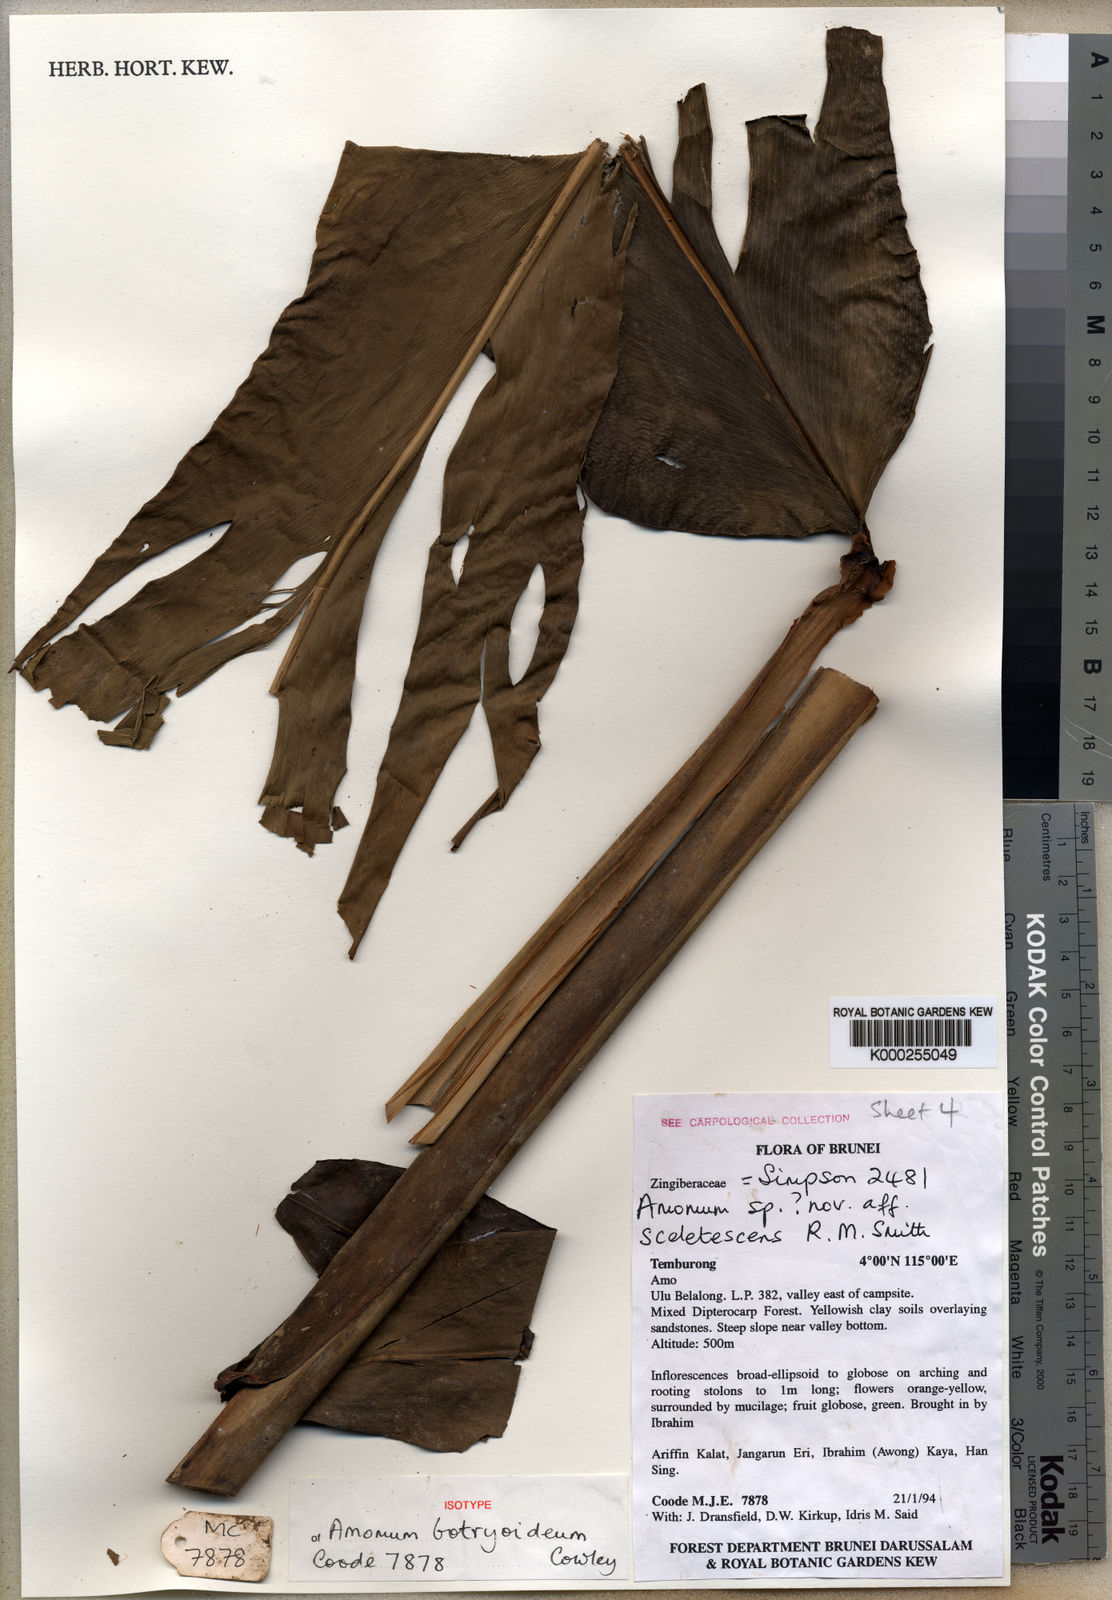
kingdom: Plantae
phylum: Tracheophyta
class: Liliopsida
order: Zingiberales
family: Zingiberaceae
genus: Meistera
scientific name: Meistera botryoidea
